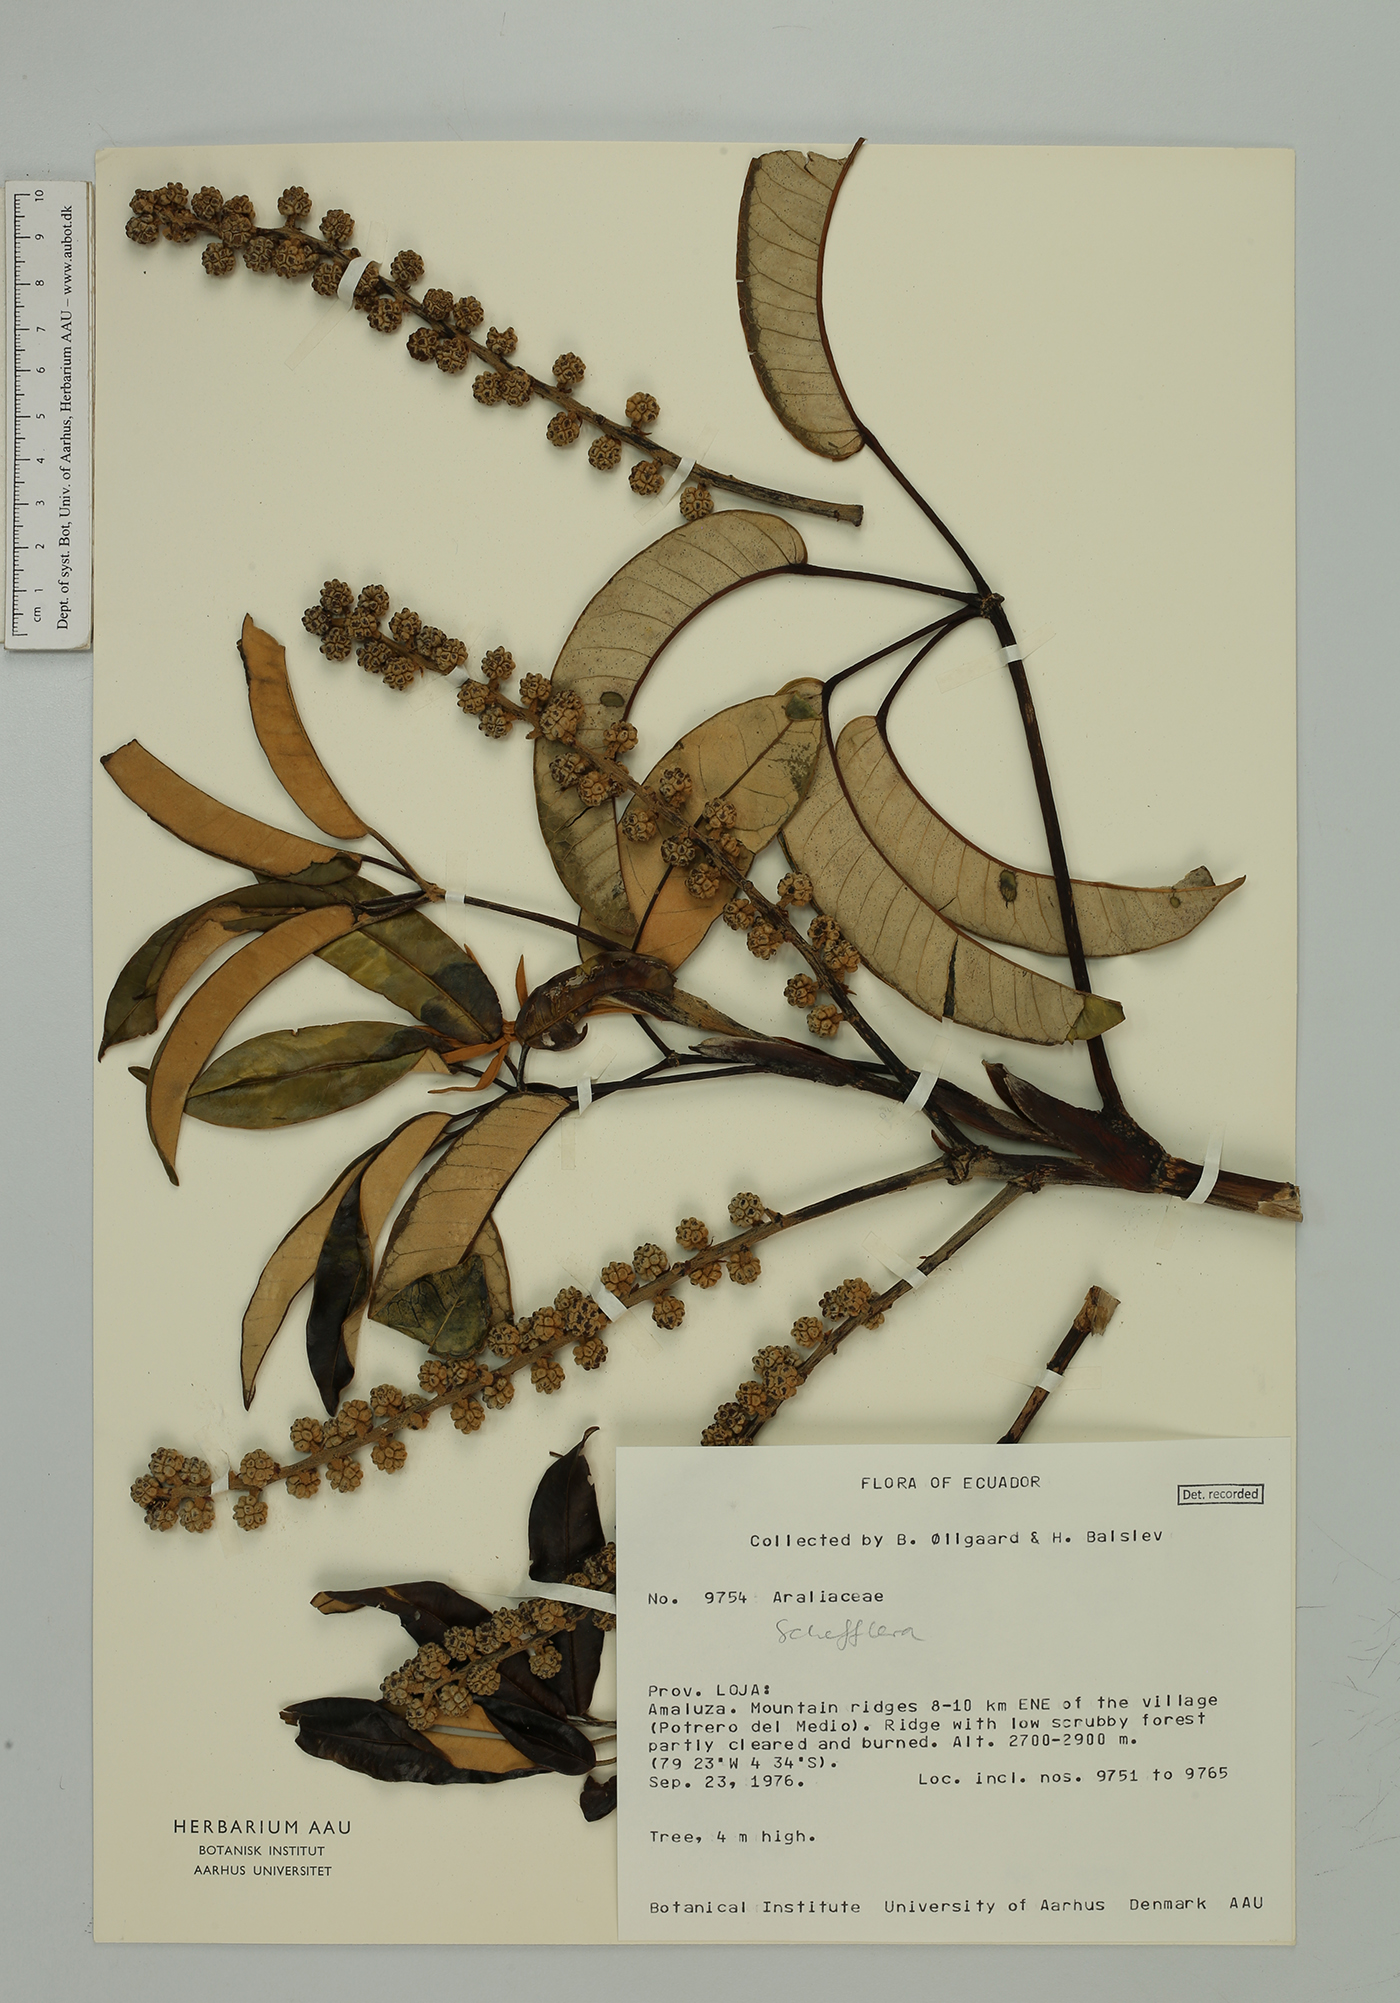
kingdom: Plantae
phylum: Tracheophyta
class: Magnoliopsida
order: Apiales
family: Araliaceae
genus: Sciodaphyllum
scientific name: Sciodaphyllum
